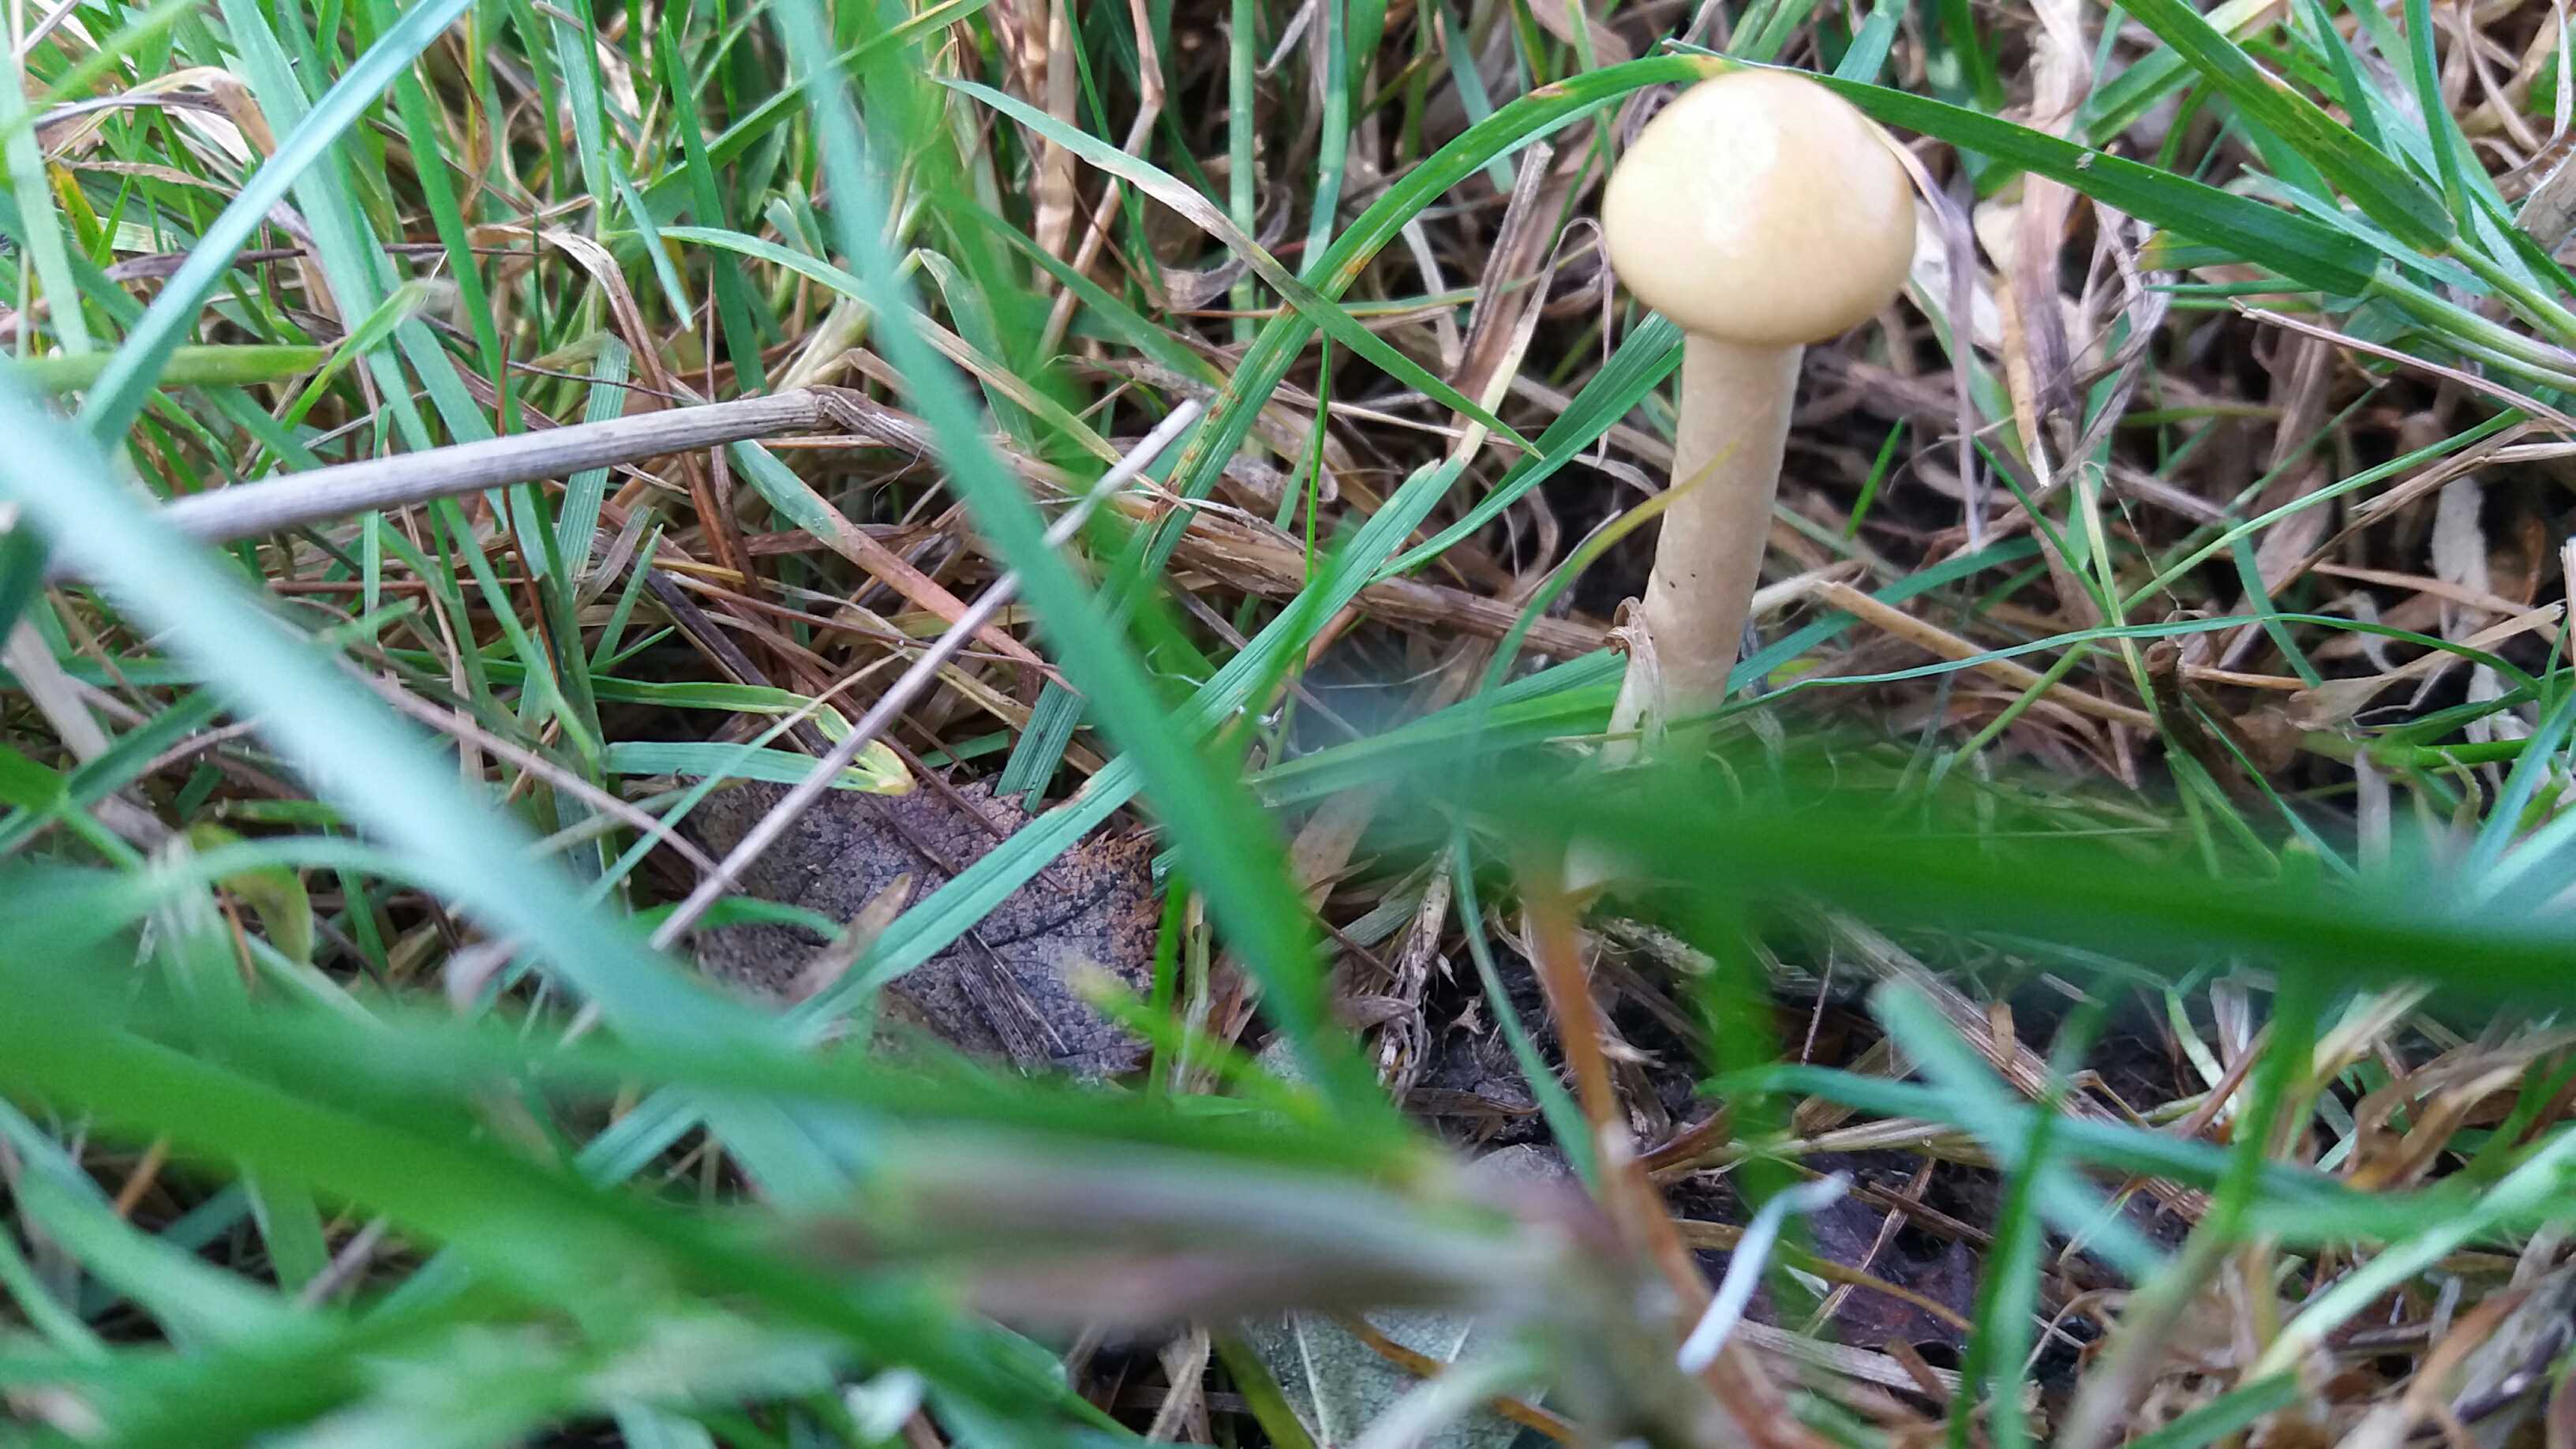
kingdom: Fungi
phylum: Basidiomycota
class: Agaricomycetes
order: Agaricales
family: Strophariaceae
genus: Protostropharia
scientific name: Protostropharia semiglobata
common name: halvkugleformet bredblad
